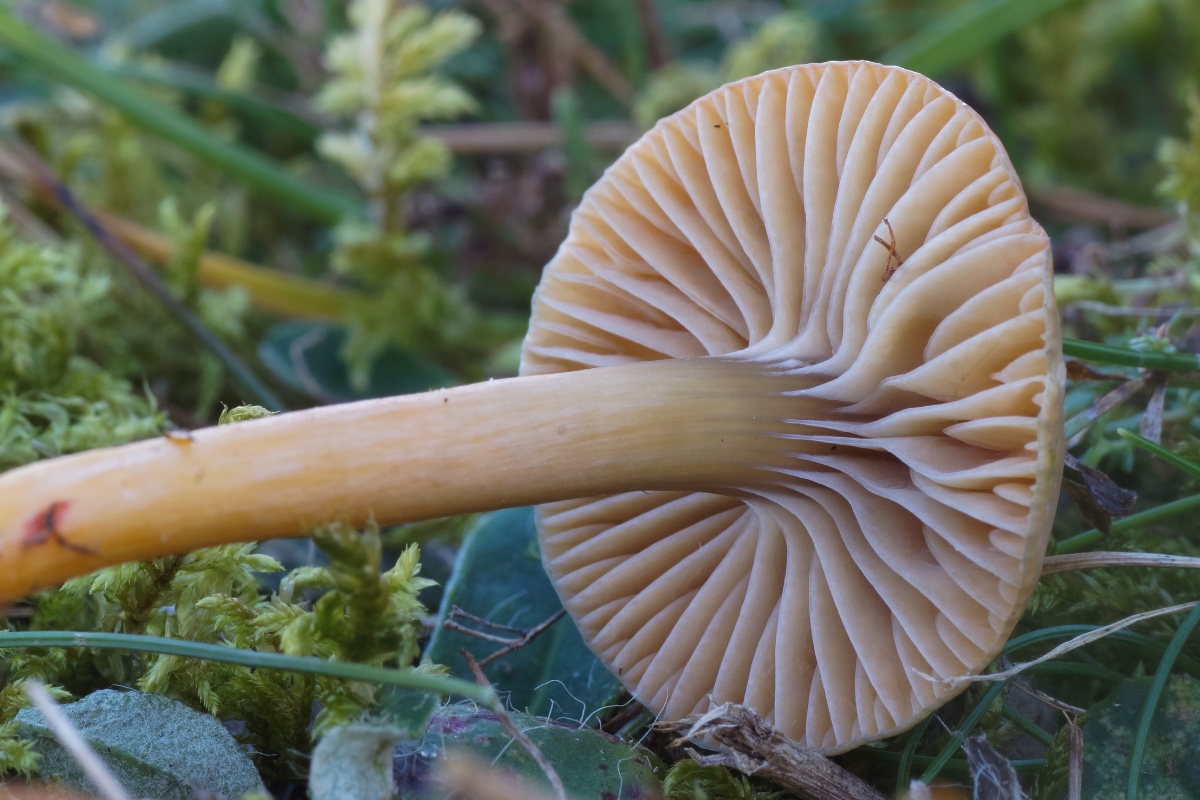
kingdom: Fungi
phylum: Basidiomycota
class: Agaricomycetes
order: Agaricales
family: Hygrophoraceae
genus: Gliophorus
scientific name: Gliophorus laetus
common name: brusk-vokshat
